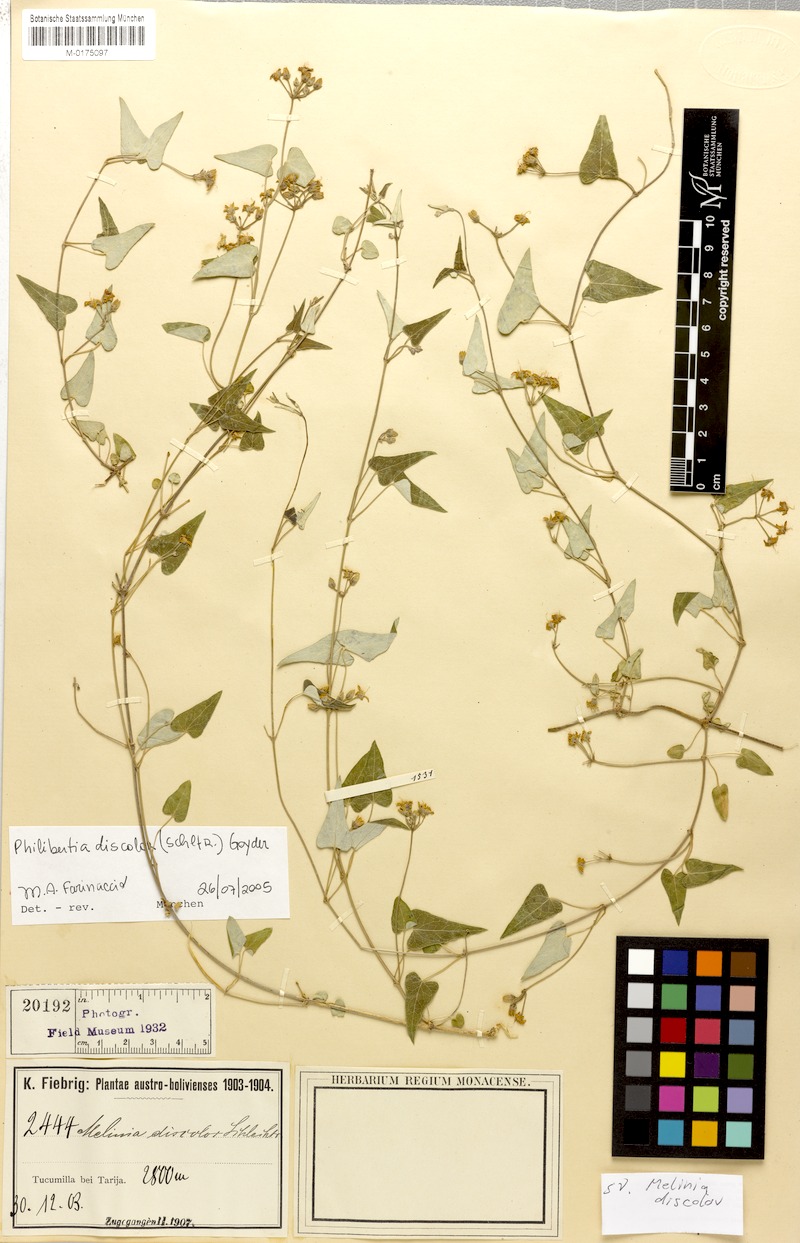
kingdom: Plantae
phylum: Tracheophyta
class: Magnoliopsida
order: Gentianales
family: Apocynaceae
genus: Philibertia
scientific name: Philibertia discolor
